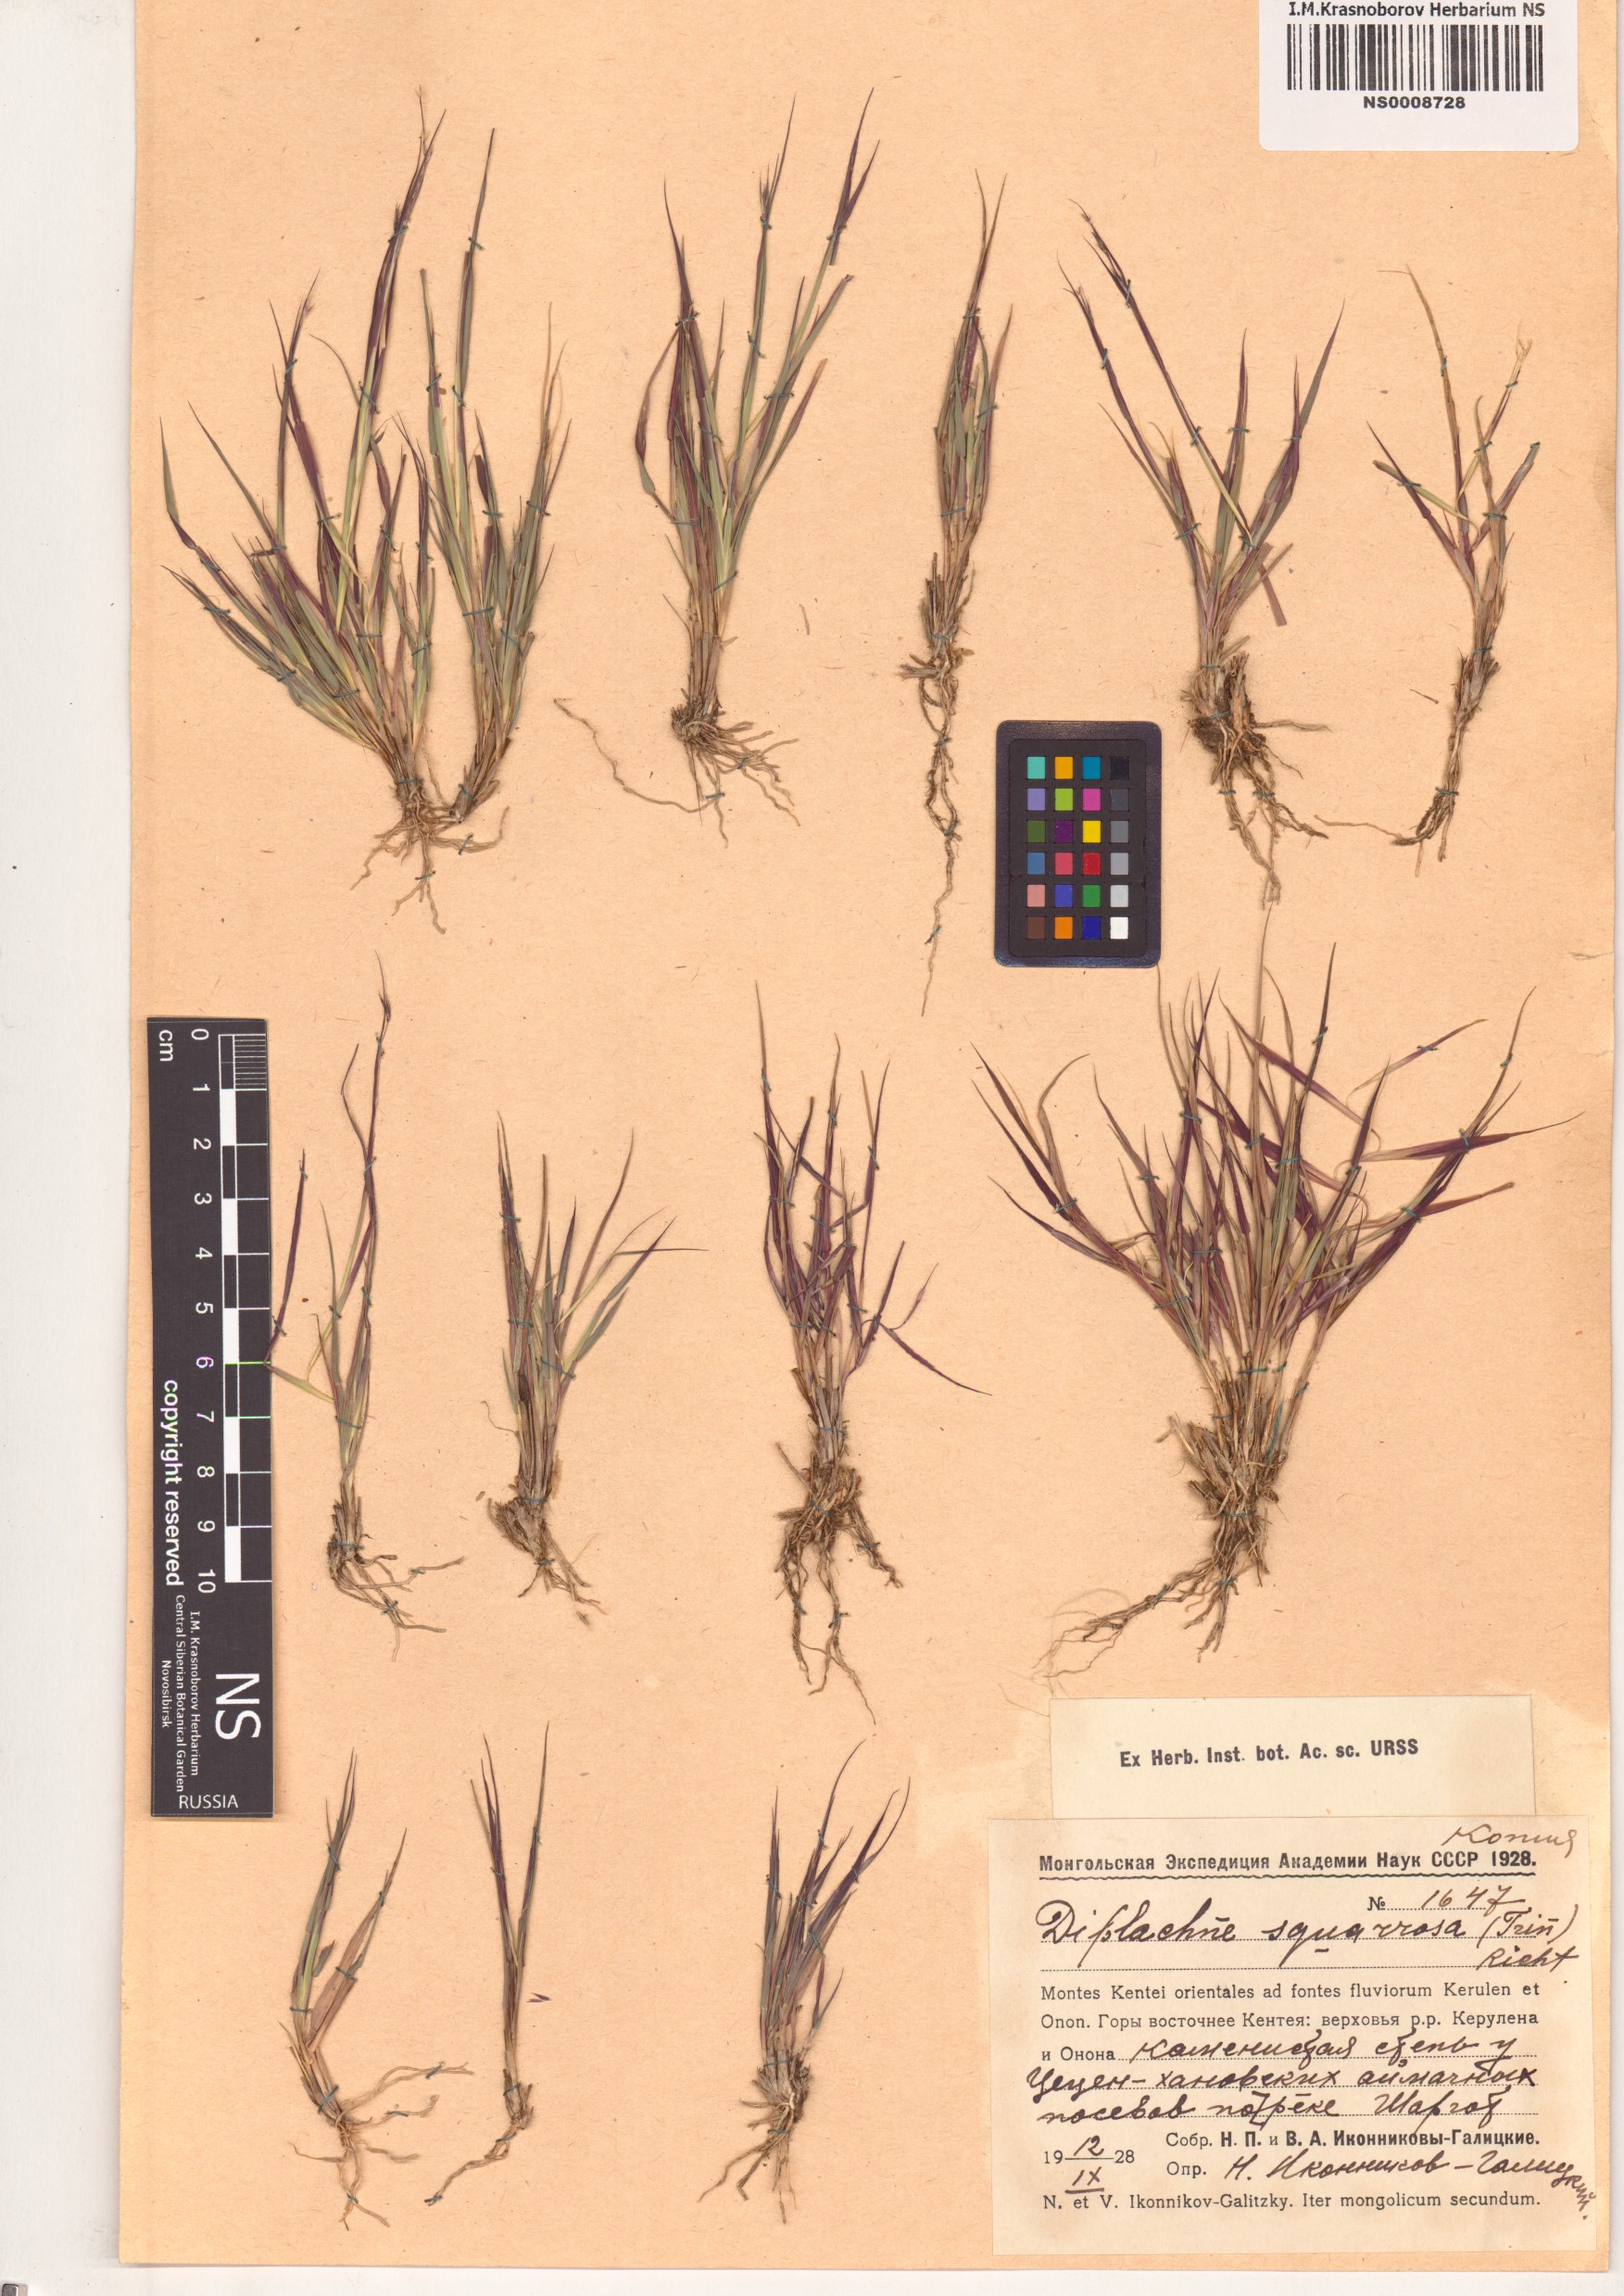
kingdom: Plantae
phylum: Tracheophyta
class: Liliopsida
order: Poales
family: Poaceae
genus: Cleistogenes
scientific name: Cleistogenes squarrosa
